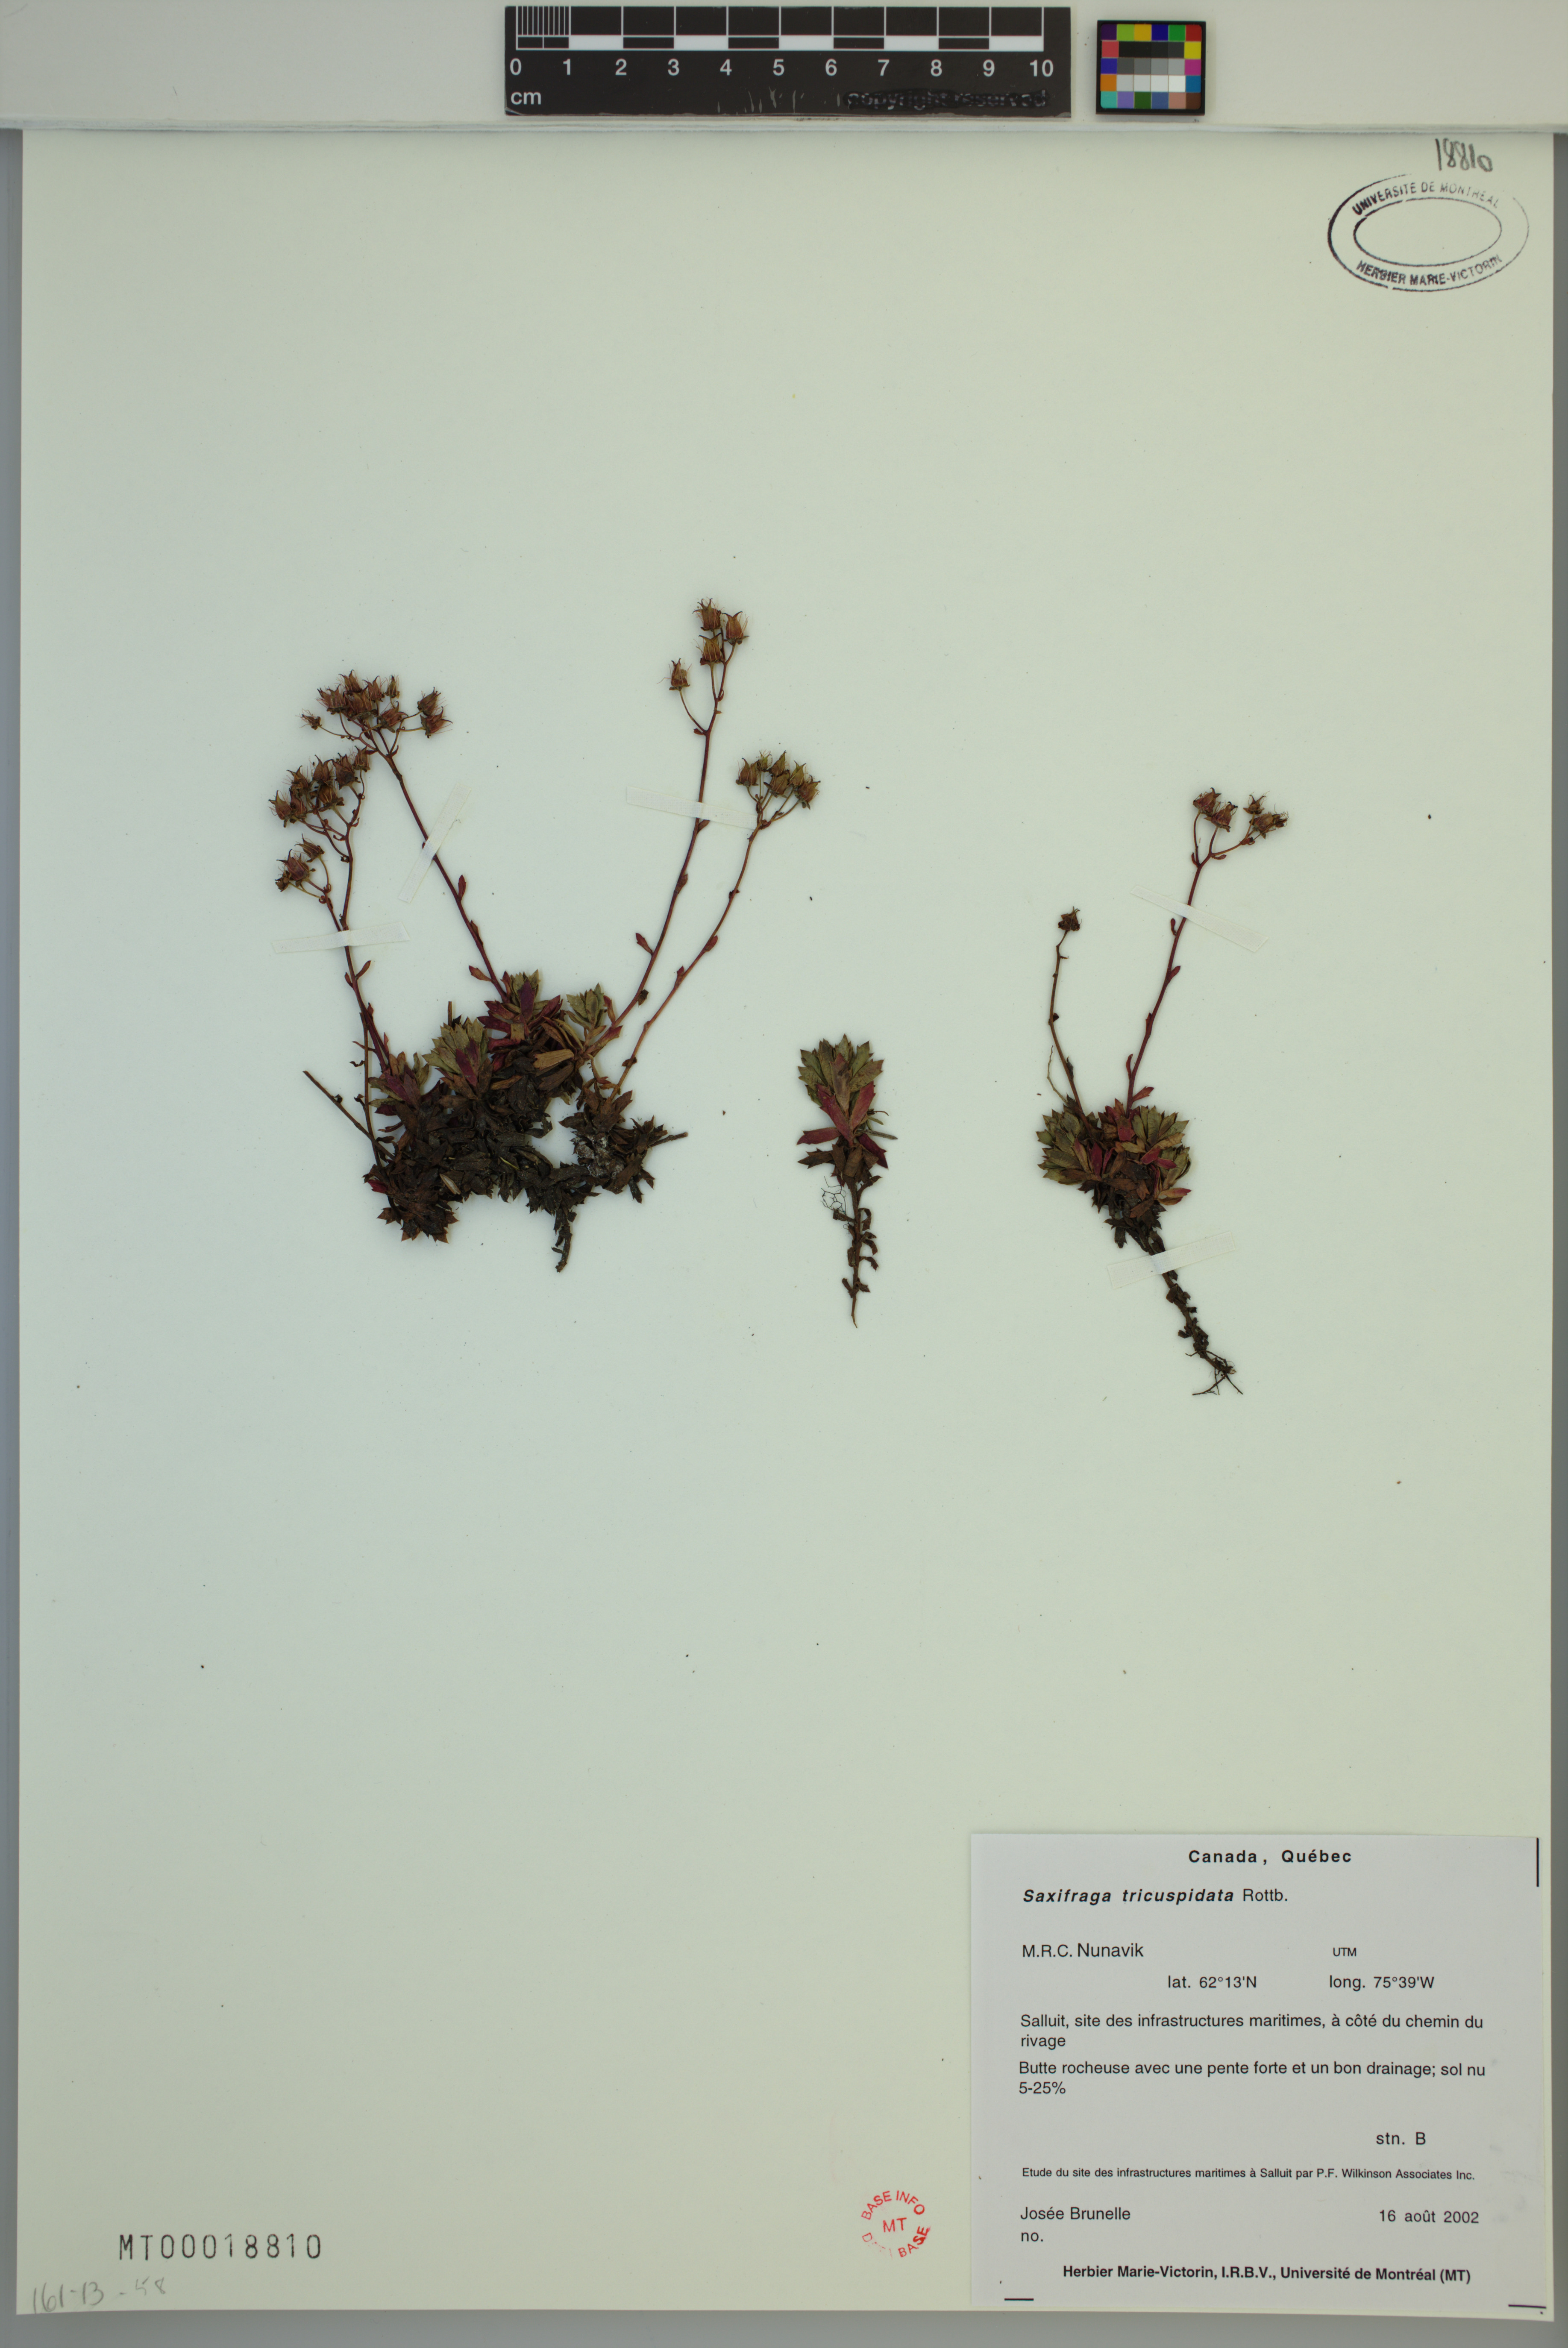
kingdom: Plantae
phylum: Tracheophyta
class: Magnoliopsida
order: Saxifragales
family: Saxifragaceae
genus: Saxifraga
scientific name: Saxifraga tricuspidata
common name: Prickly saxifrage
